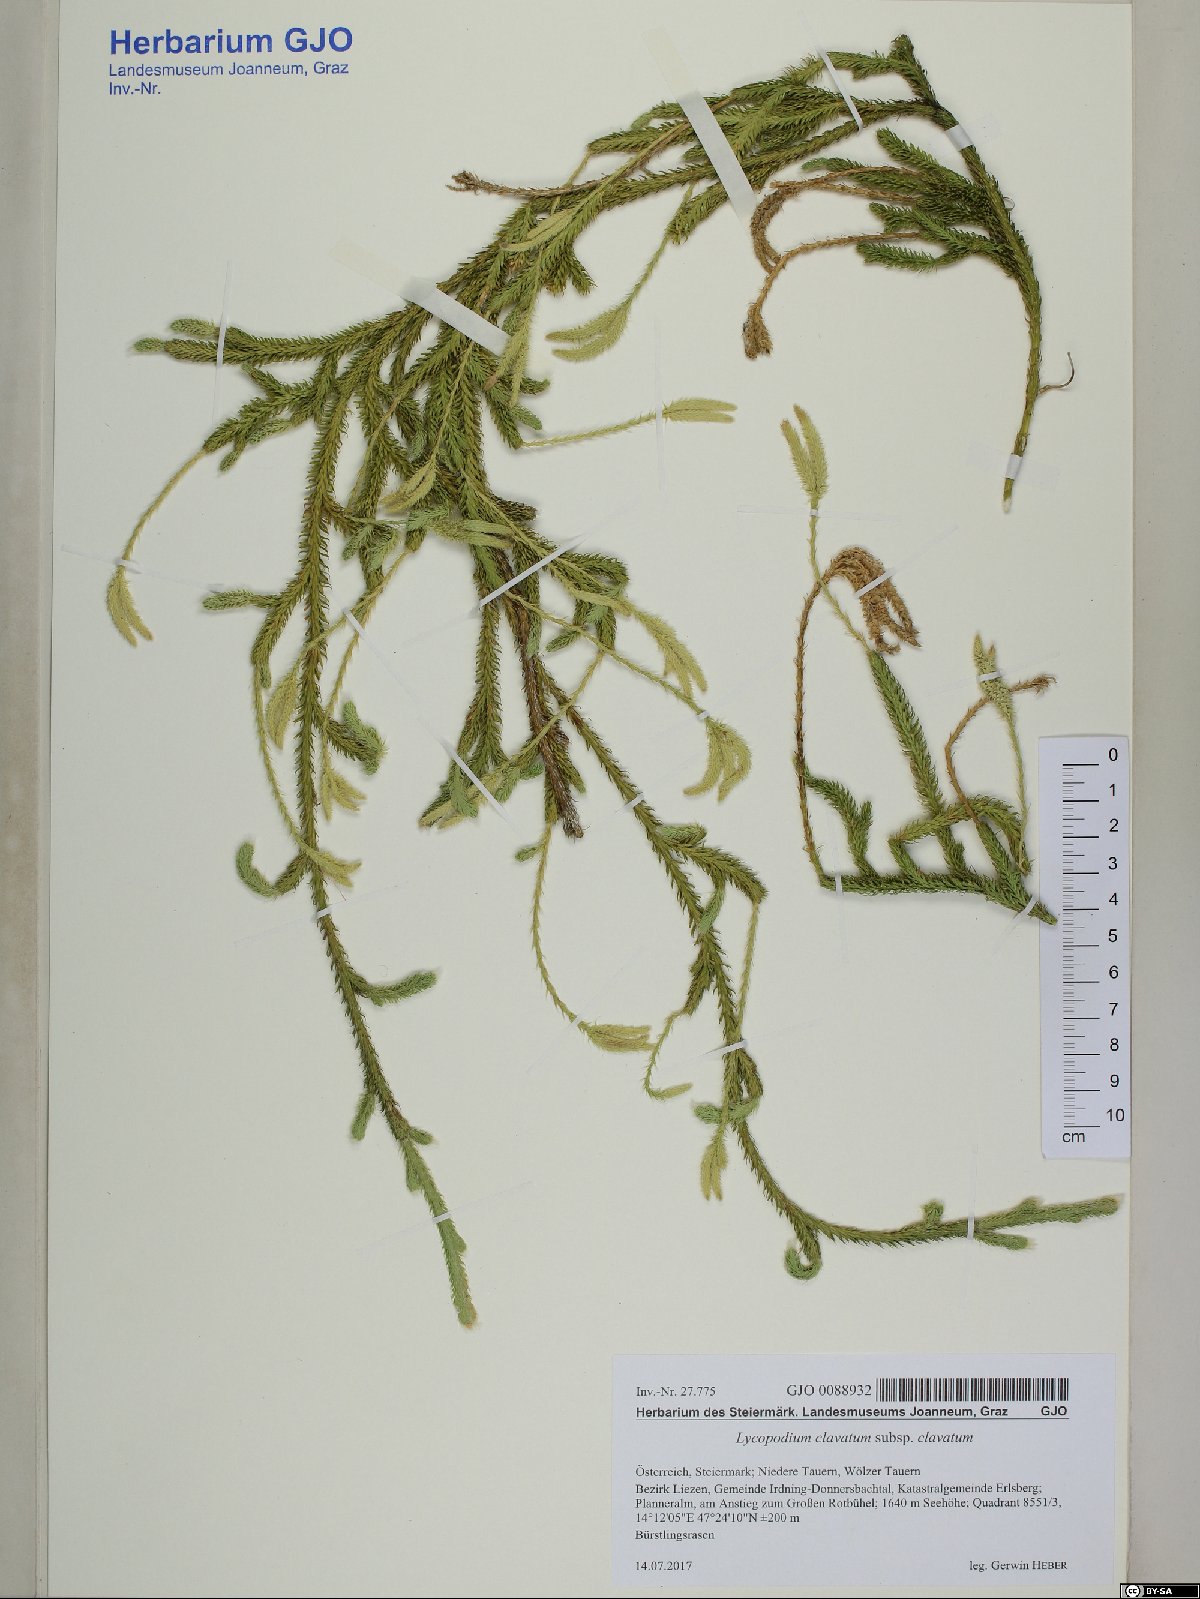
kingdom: Plantae
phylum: Tracheophyta
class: Lycopodiopsida
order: Lycopodiales
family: Lycopodiaceae
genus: Lycopodium
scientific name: Lycopodium clavatum
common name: Stag's-horn clubmoss
